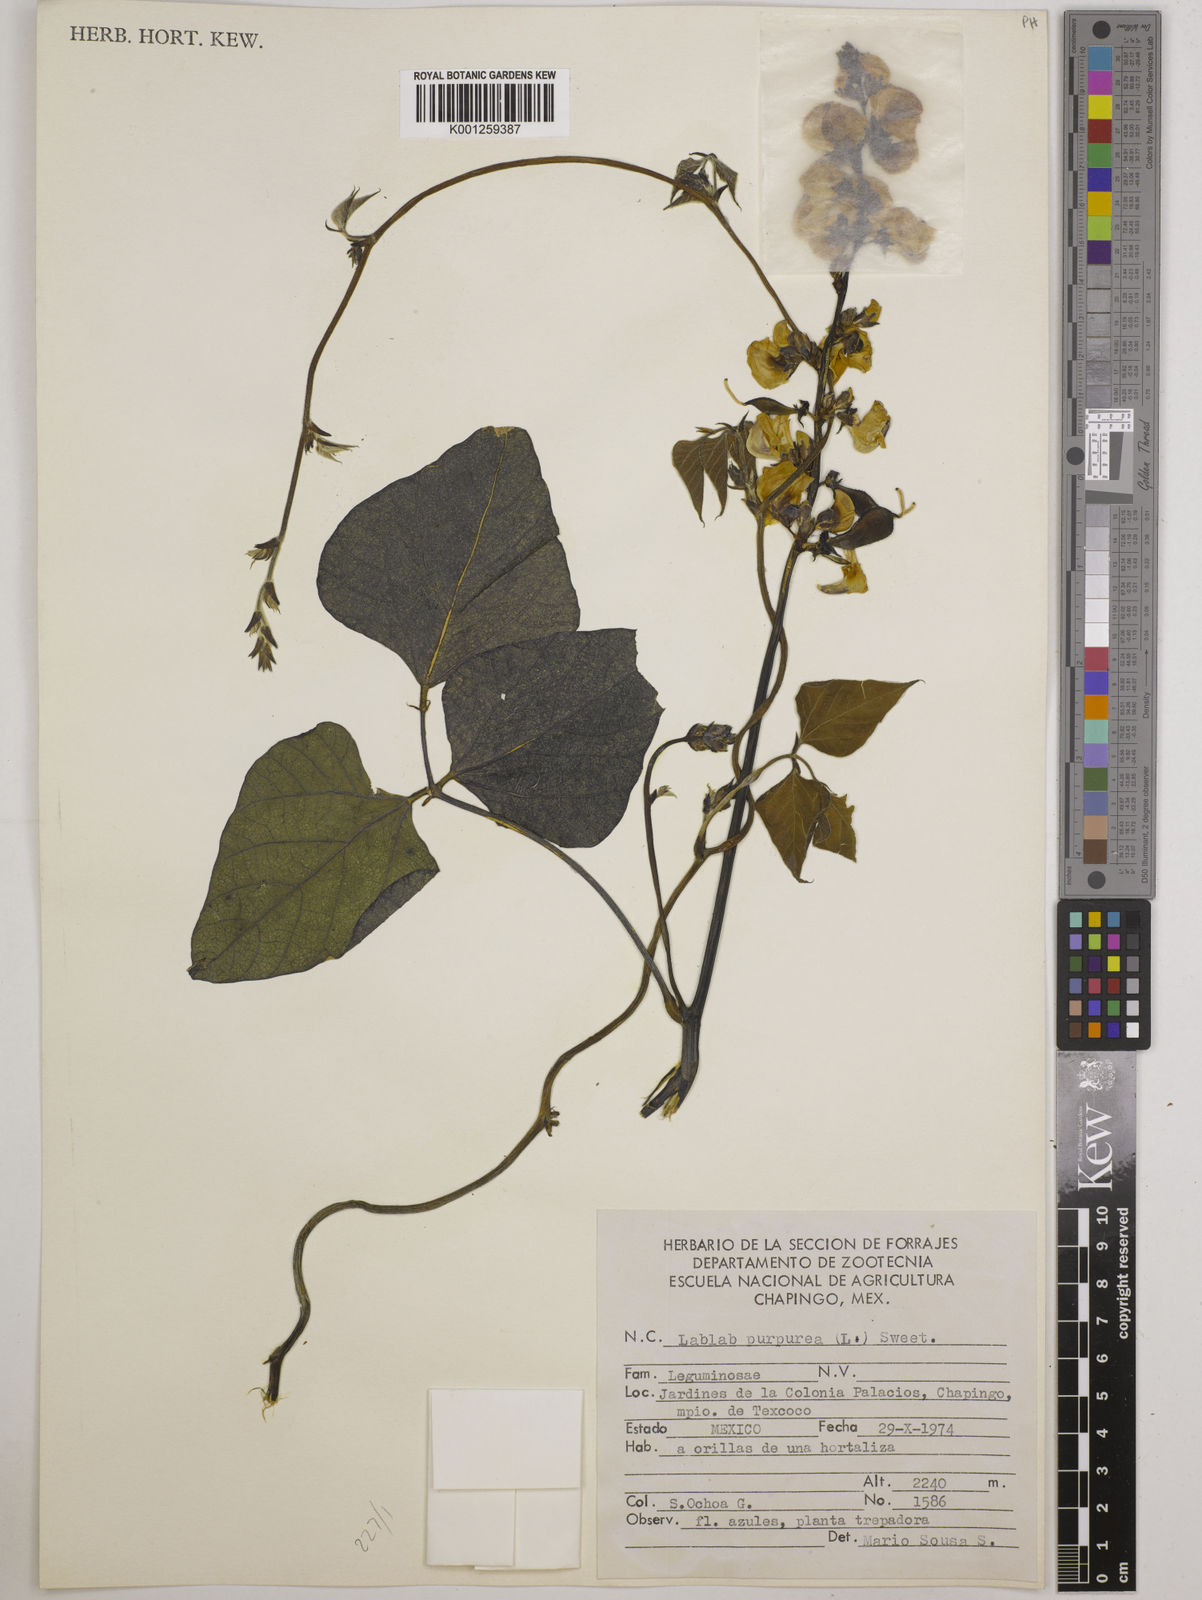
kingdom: Plantae
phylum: Tracheophyta
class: Magnoliopsida
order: Fabales
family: Fabaceae
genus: Lablab
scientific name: Lablab purpureus
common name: Lablab-bean
